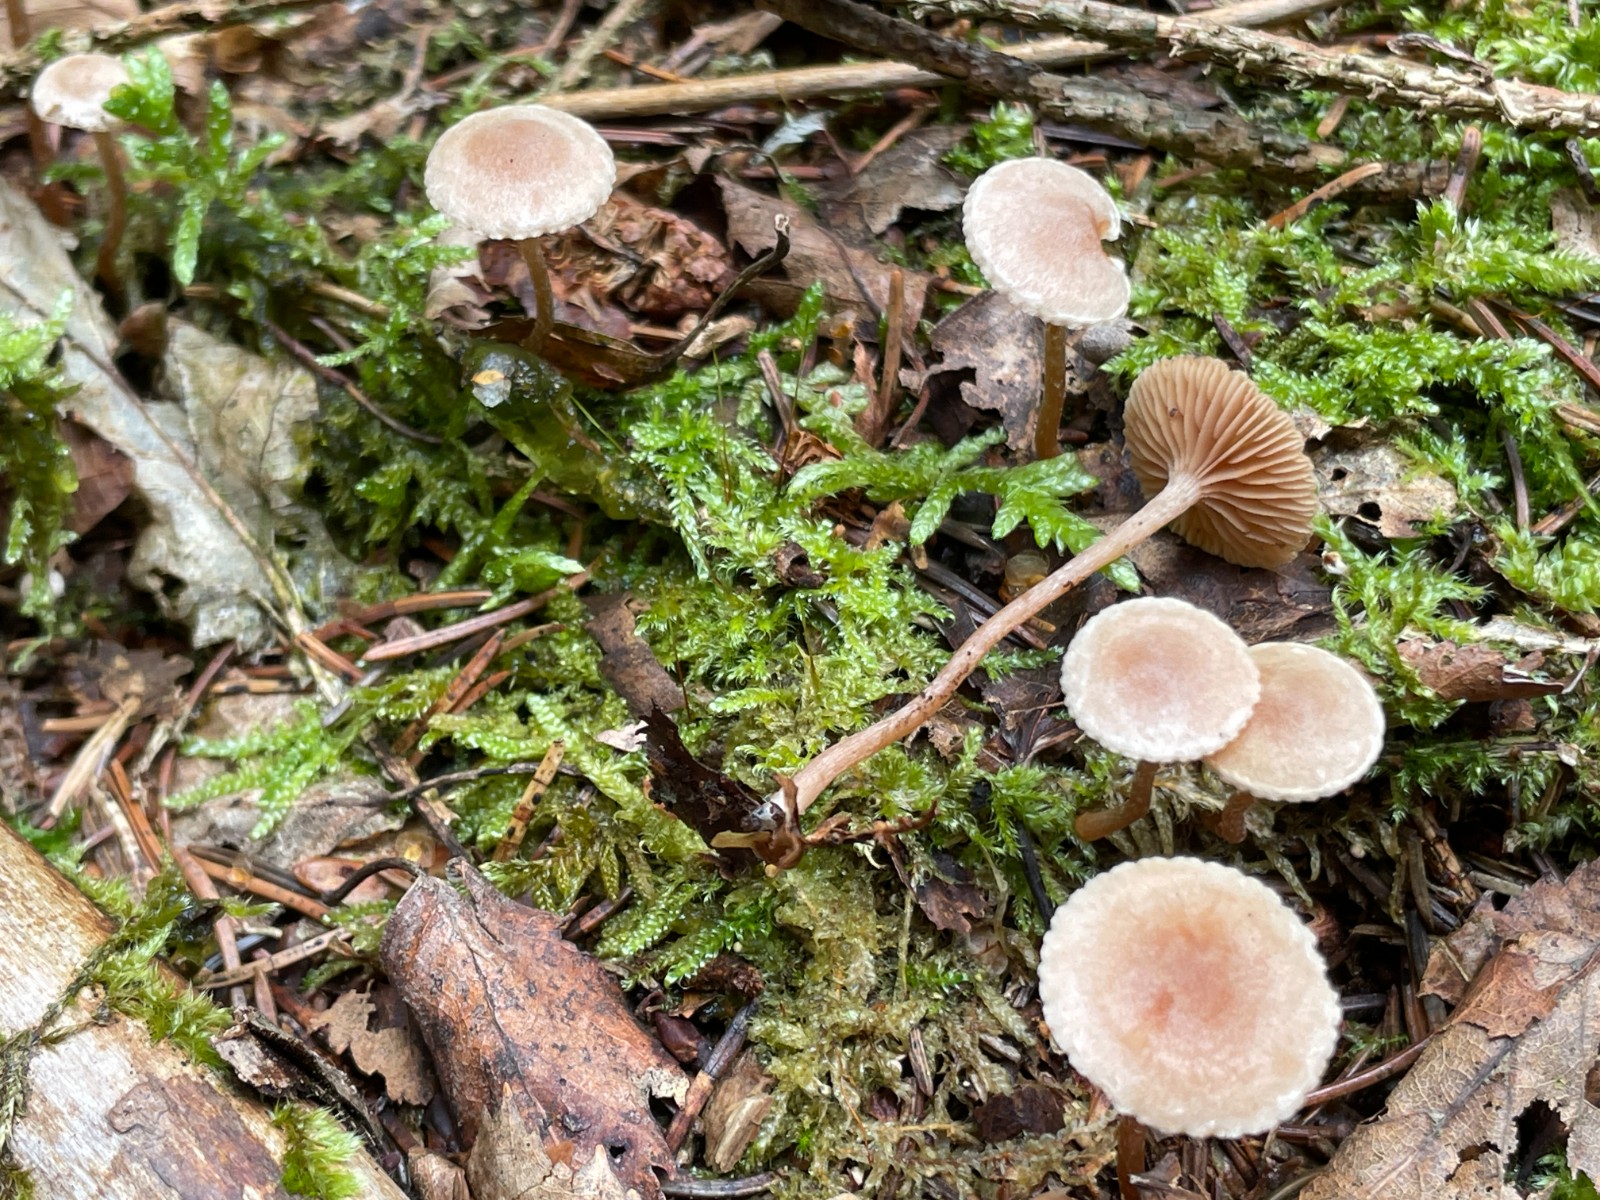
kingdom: Fungi
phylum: Basidiomycota
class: Agaricomycetes
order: Agaricales
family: Tubariaceae
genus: Tubaria
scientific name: Tubaria conspersa
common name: bleg fnughat
